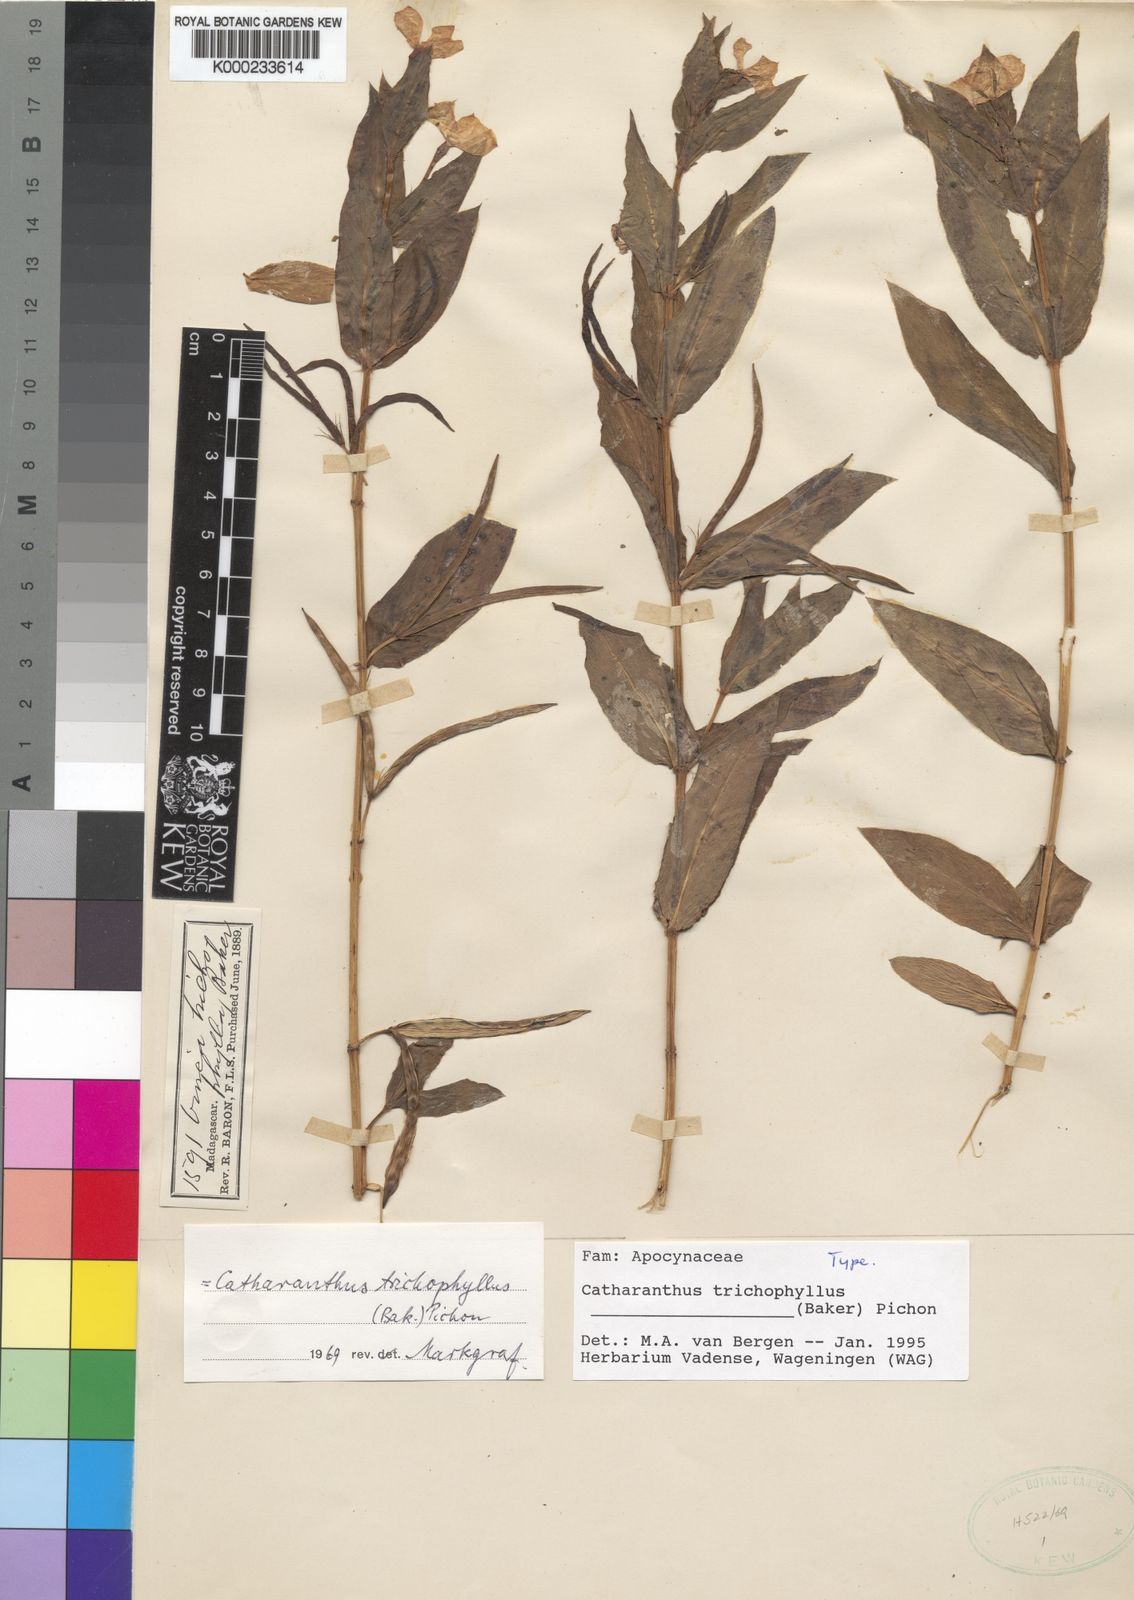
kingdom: Plantae
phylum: Tracheophyta
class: Magnoliopsida
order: Gentianales
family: Apocynaceae
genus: Catharanthus
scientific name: Catharanthus trichophyllus
